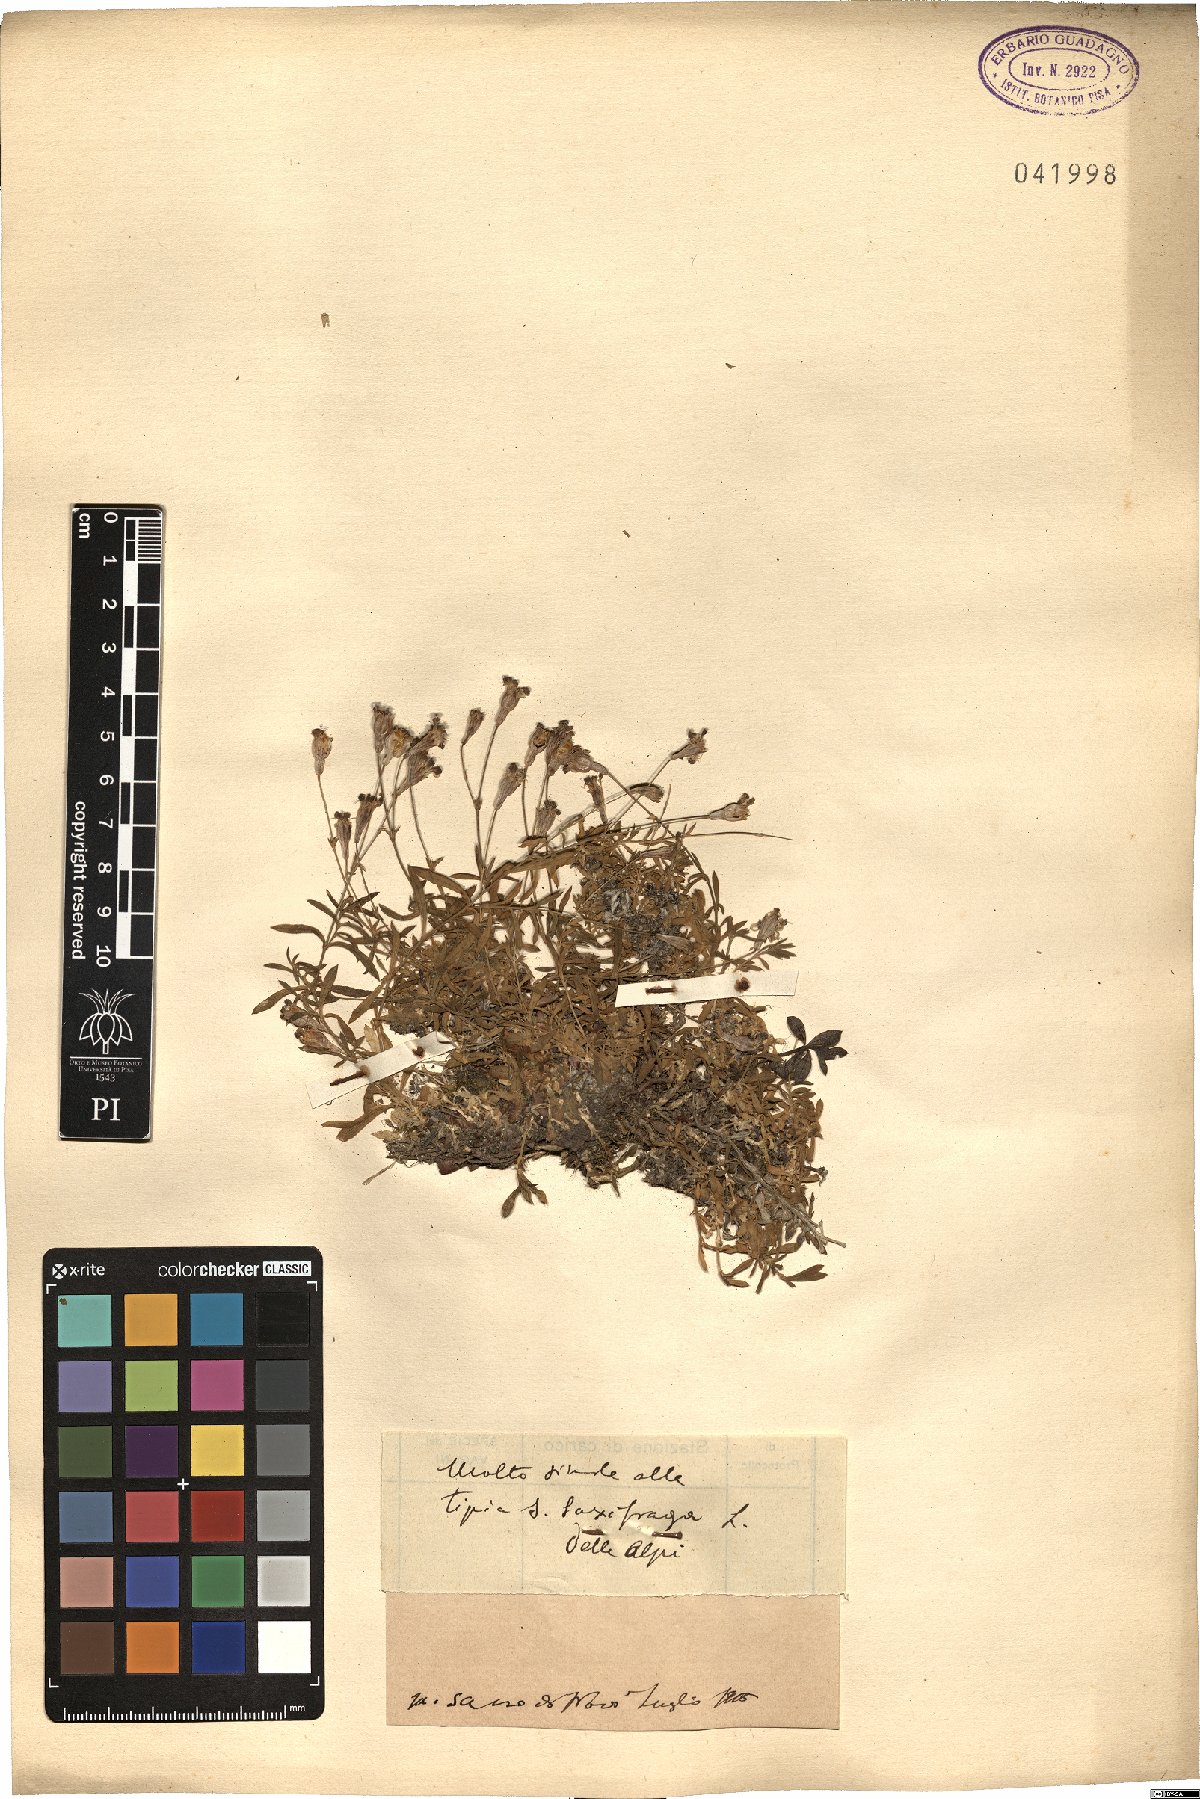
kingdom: Plantae
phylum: Tracheophyta
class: Magnoliopsida
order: Caryophyllales
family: Caryophyllaceae
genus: Silene
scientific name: Silene
